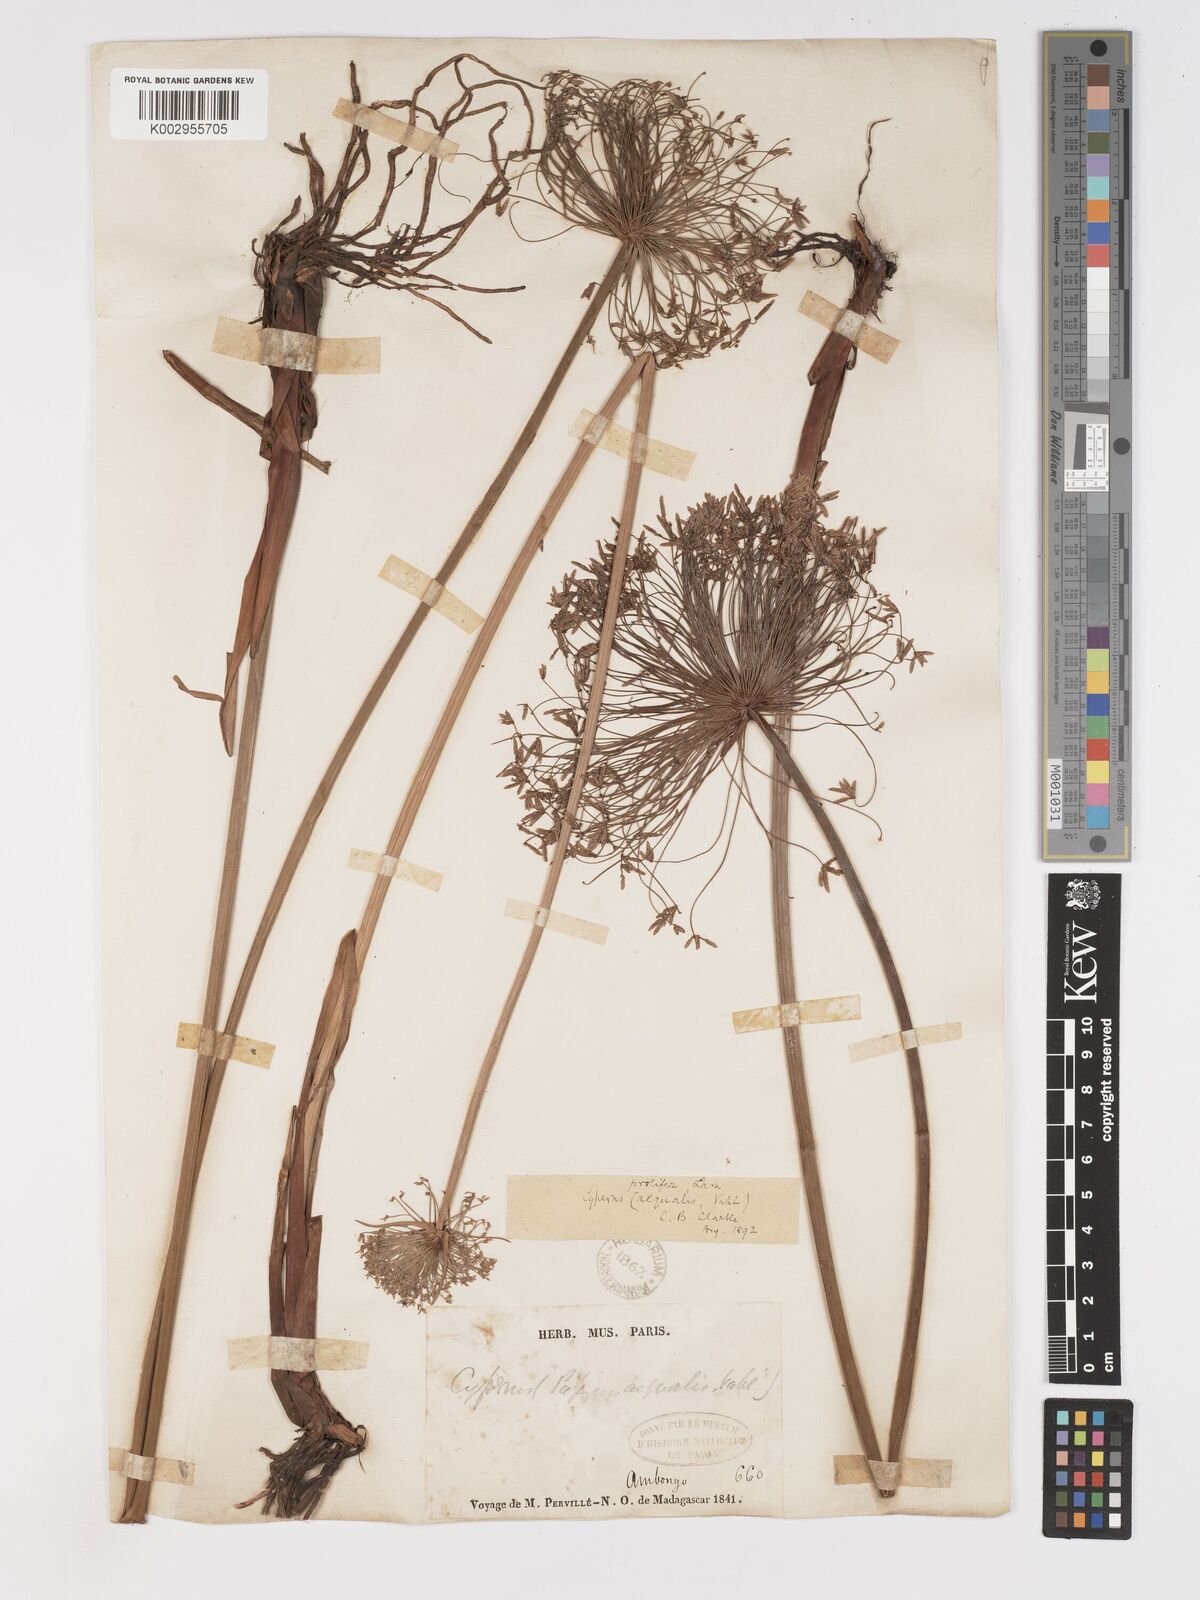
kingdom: Plantae
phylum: Tracheophyta
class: Liliopsida
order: Poales
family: Cyperaceae
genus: Cyperus
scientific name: Cyperus prolifer
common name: Miniature flatsedge
